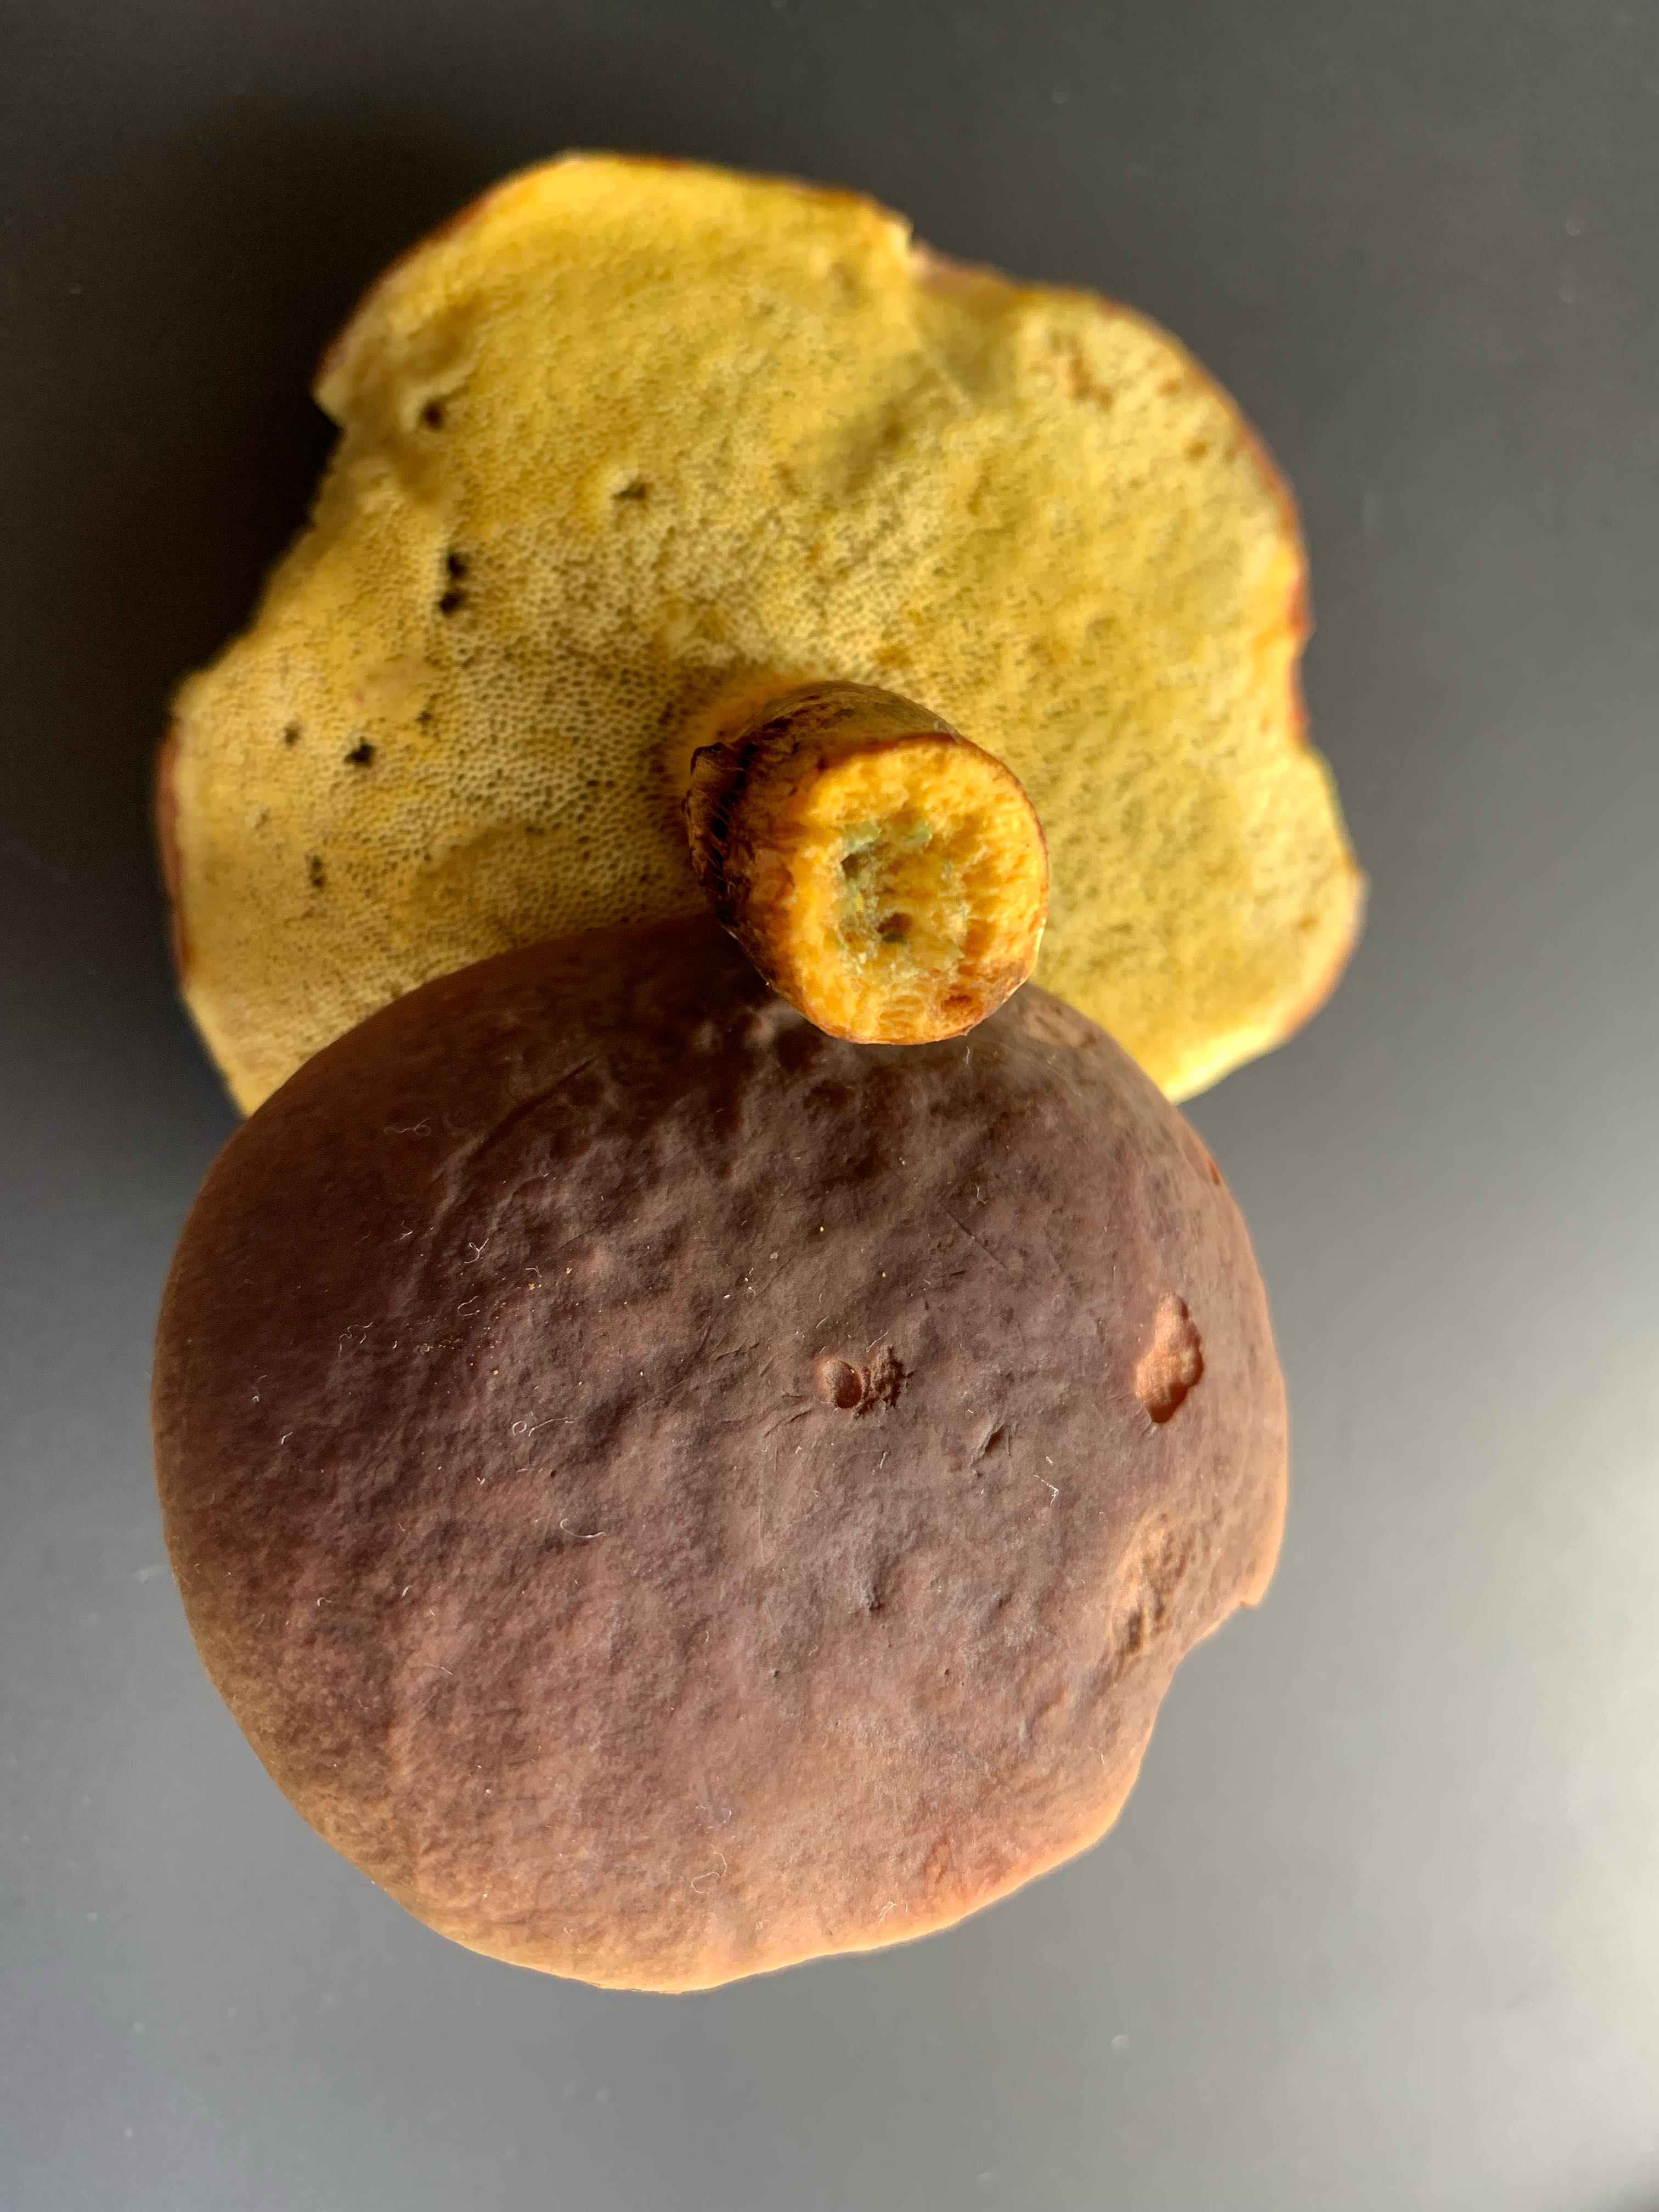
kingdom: Fungi
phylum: Basidiomycota
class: Agaricomycetes
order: Boletales
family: Boletaceae
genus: Xerocomus
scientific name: Xerocomus
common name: filtrørhat
